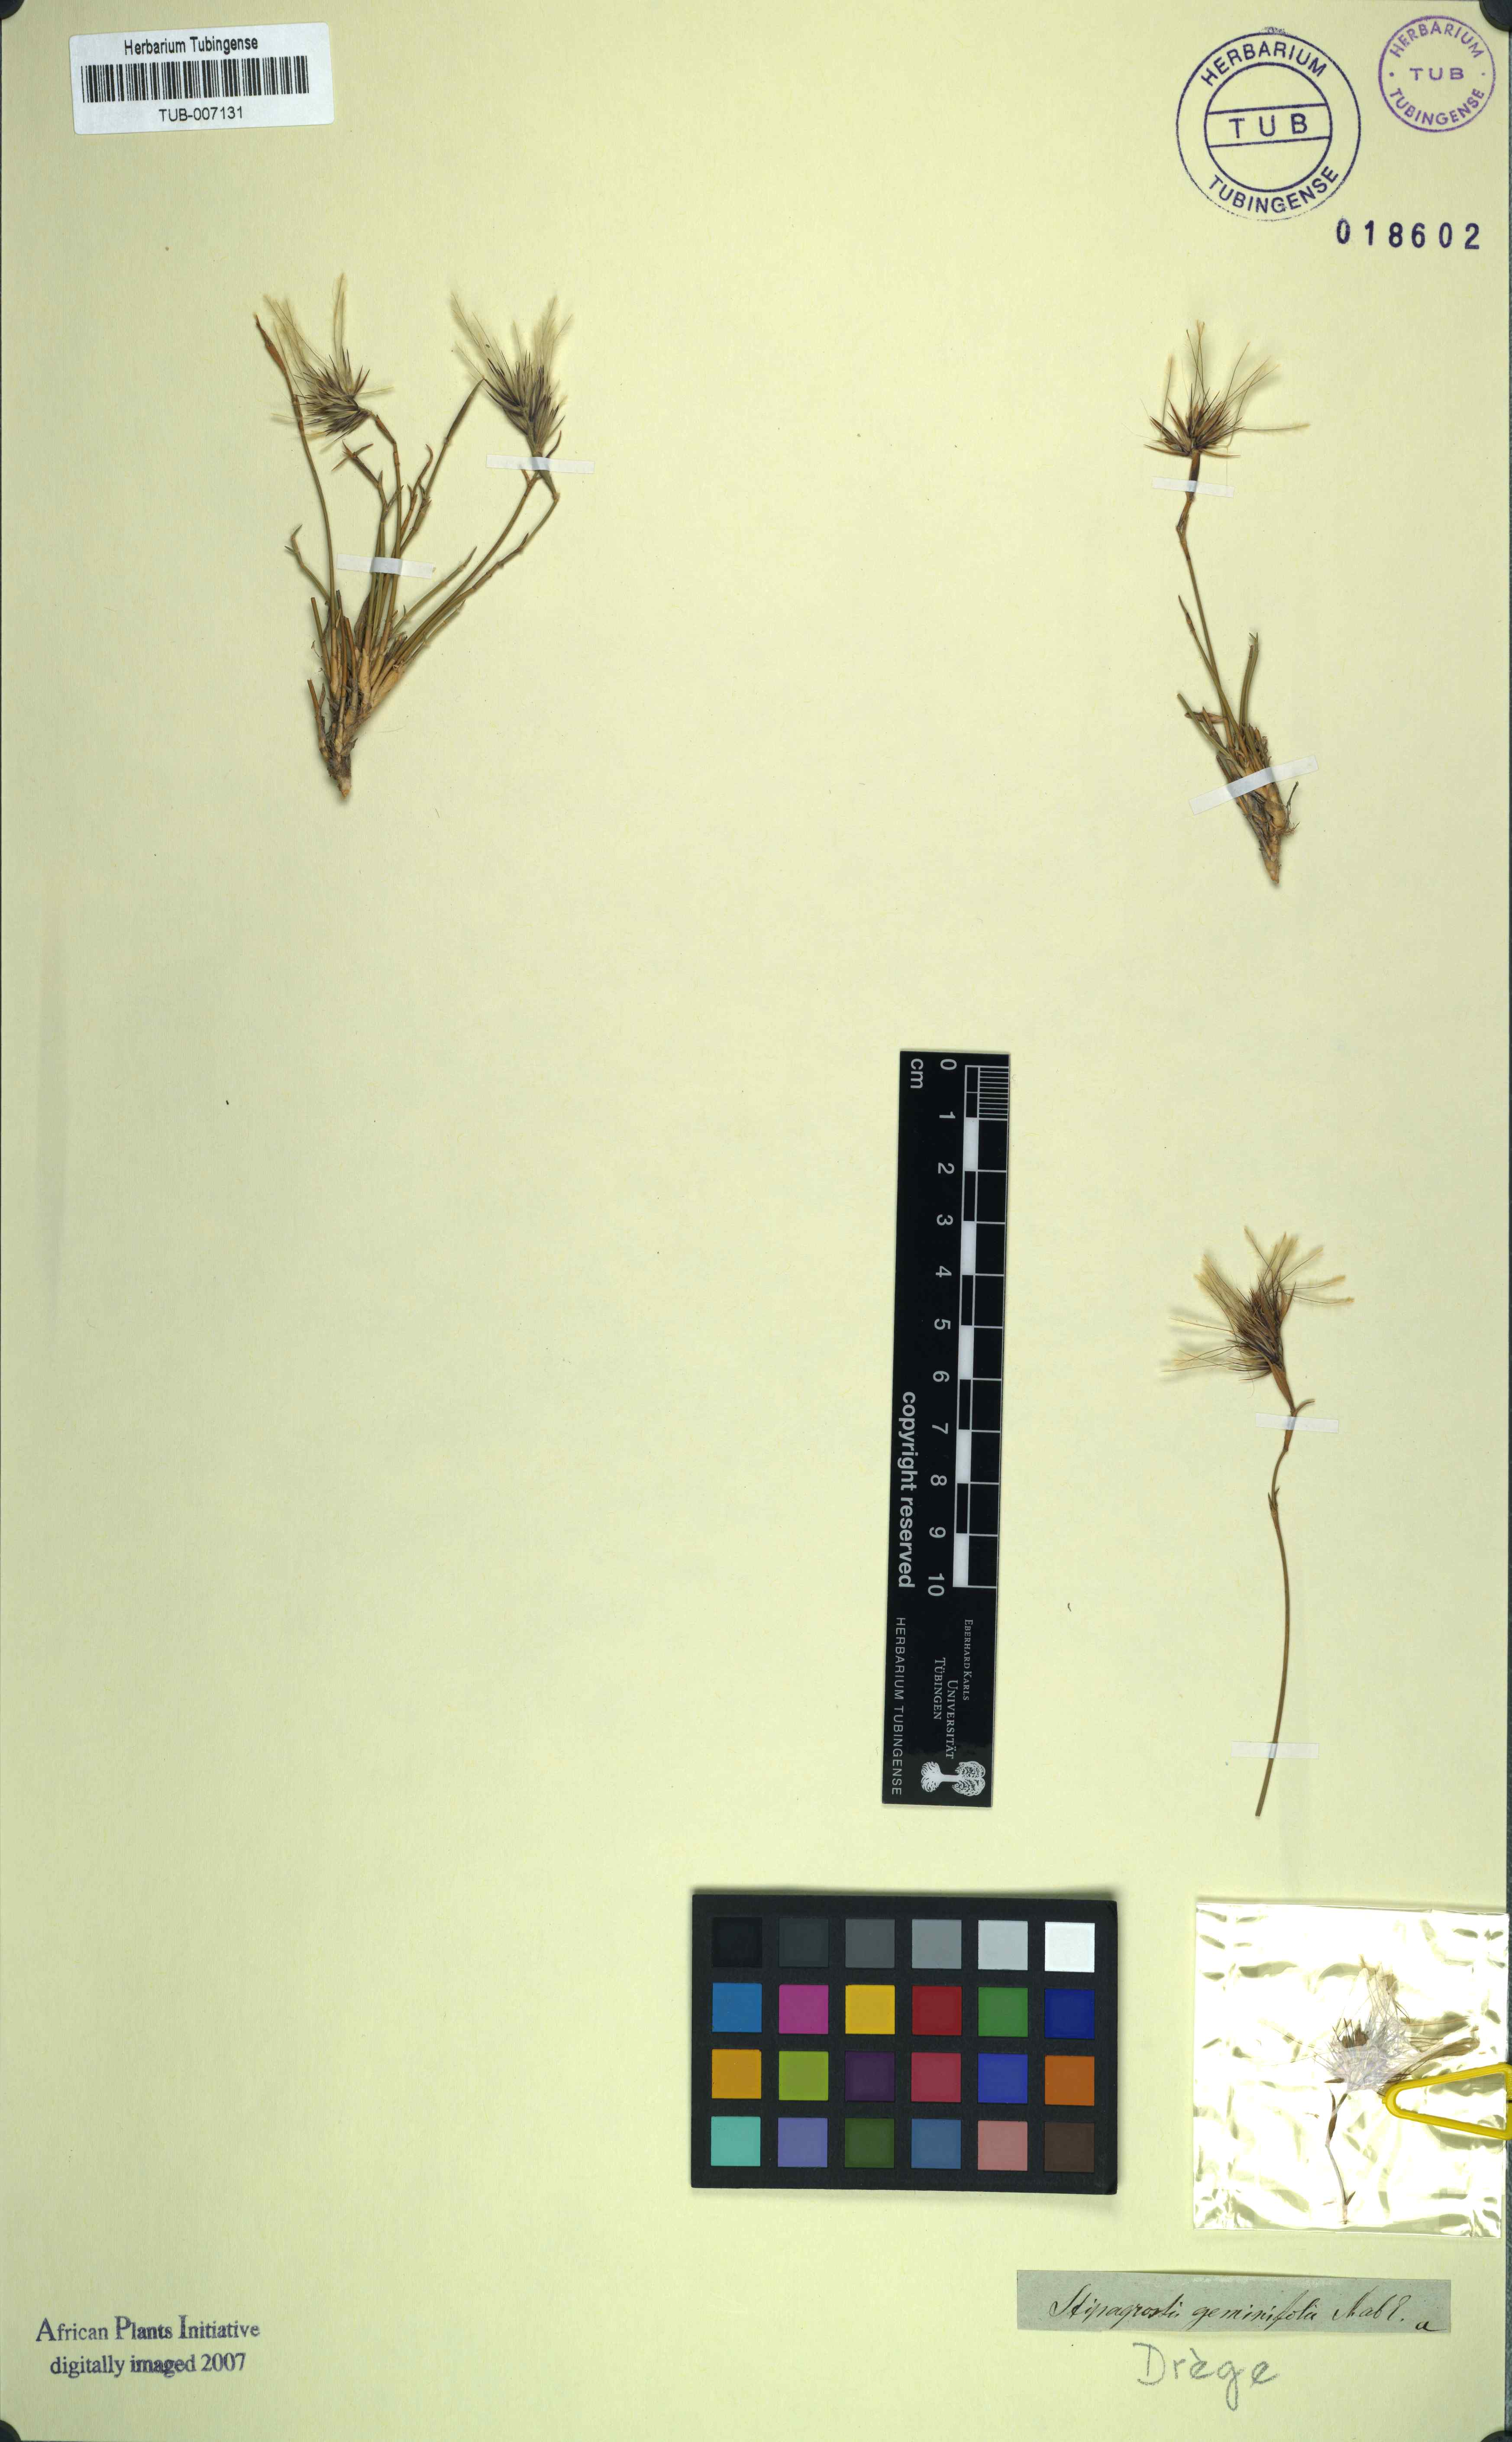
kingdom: Plantae
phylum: Tracheophyta
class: Liliopsida
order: Poales
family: Poaceae
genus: Stipagrostis
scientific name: Stipagrostis geminifolia
